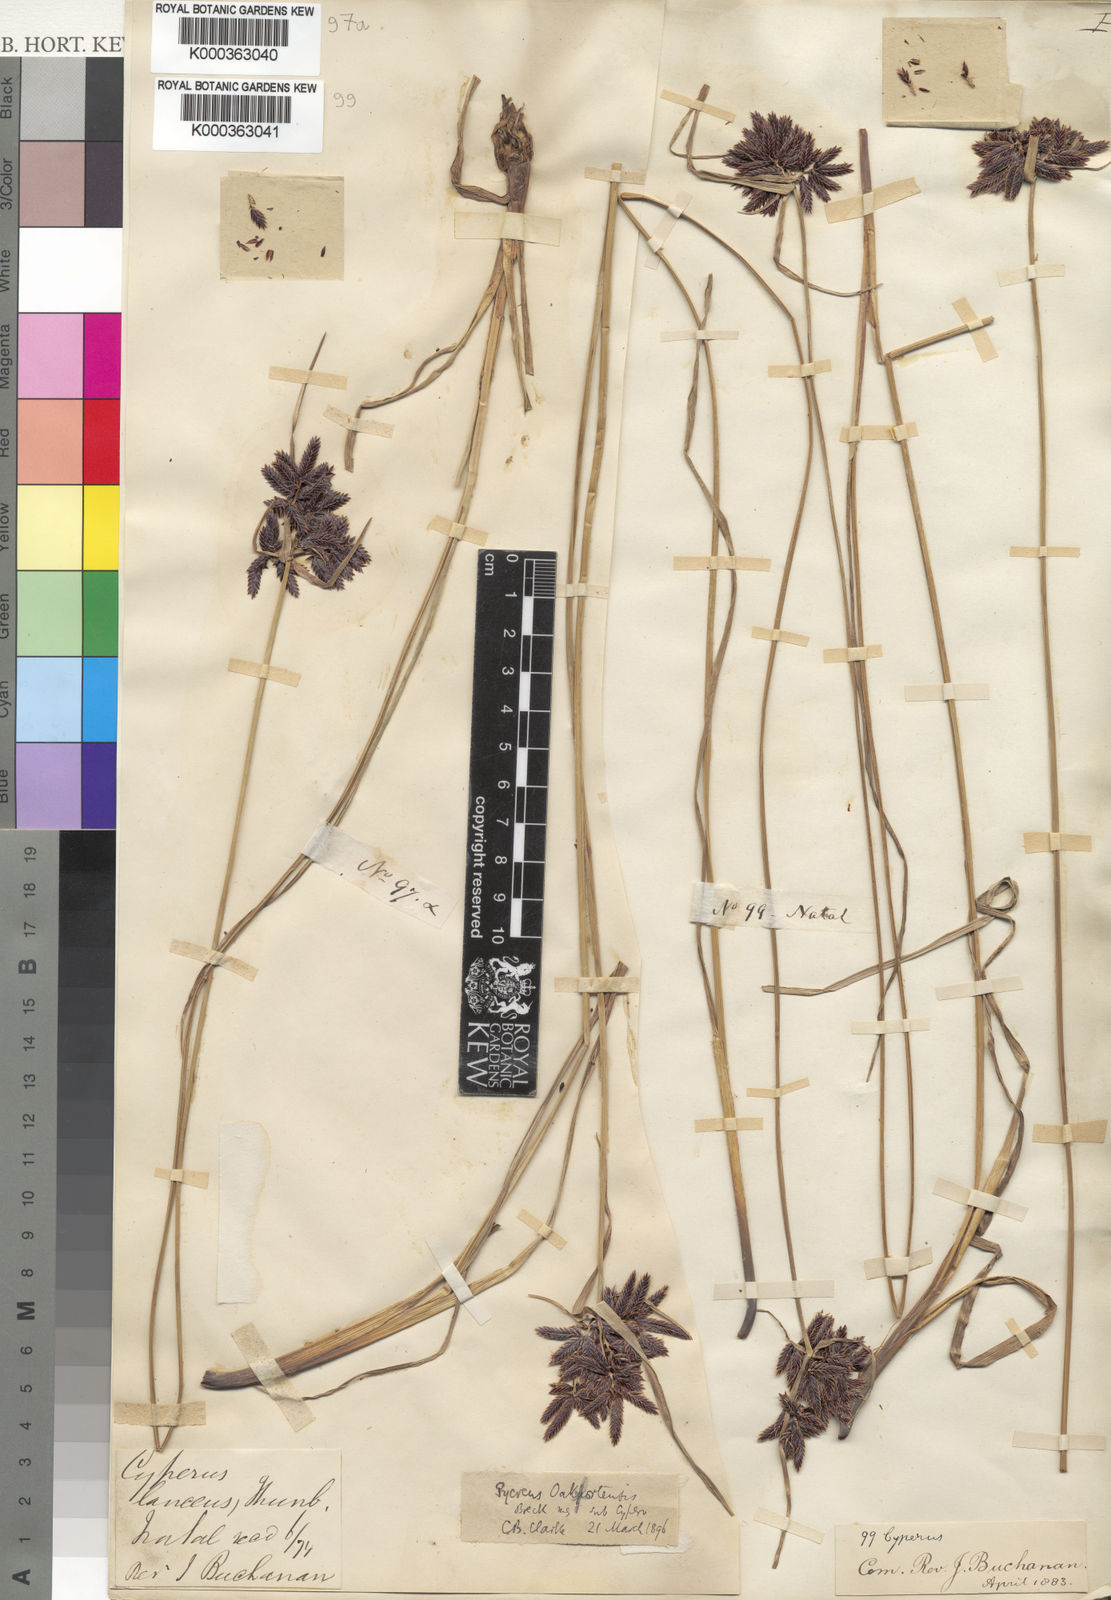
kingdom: Plantae
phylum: Tracheophyta
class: Liliopsida
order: Poales
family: Cyperaceae
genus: Cyperus
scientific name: Cyperus oakfortensis
